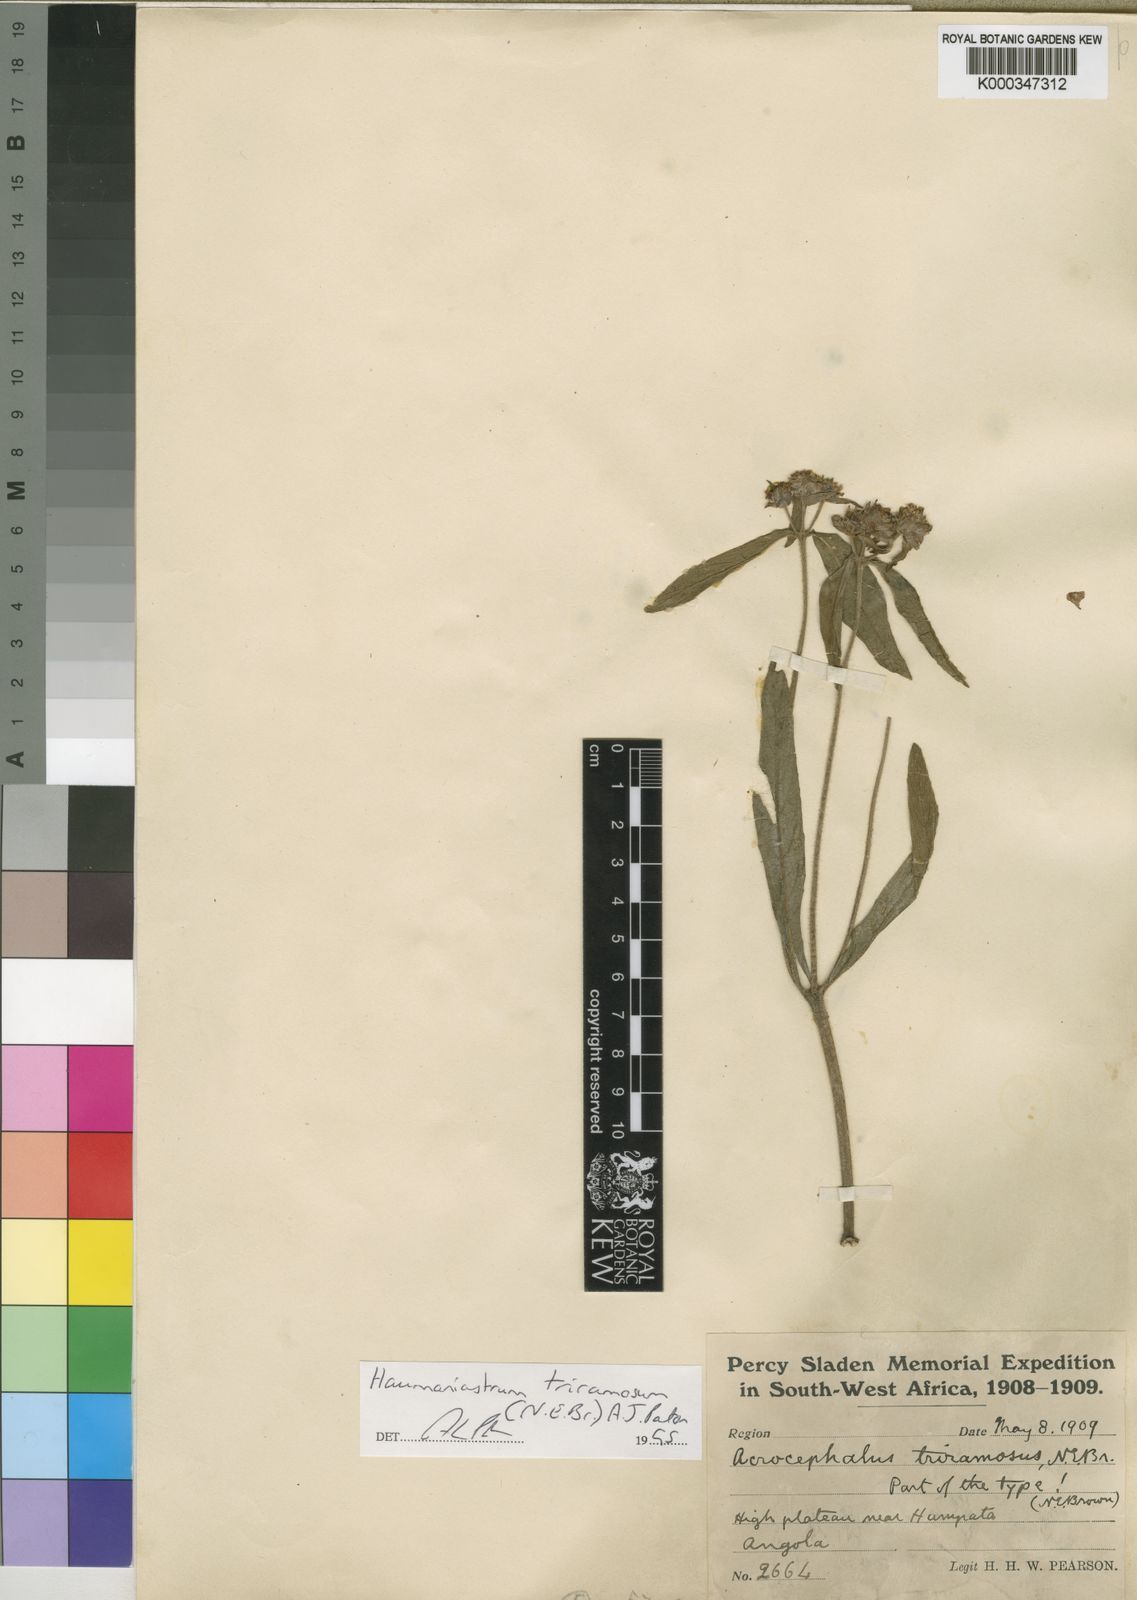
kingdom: Plantae
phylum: Tracheophyta
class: Magnoliopsida
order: Lamiales
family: Lamiaceae
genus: Haumaniastrum
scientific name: Haumaniastrum triramosum
